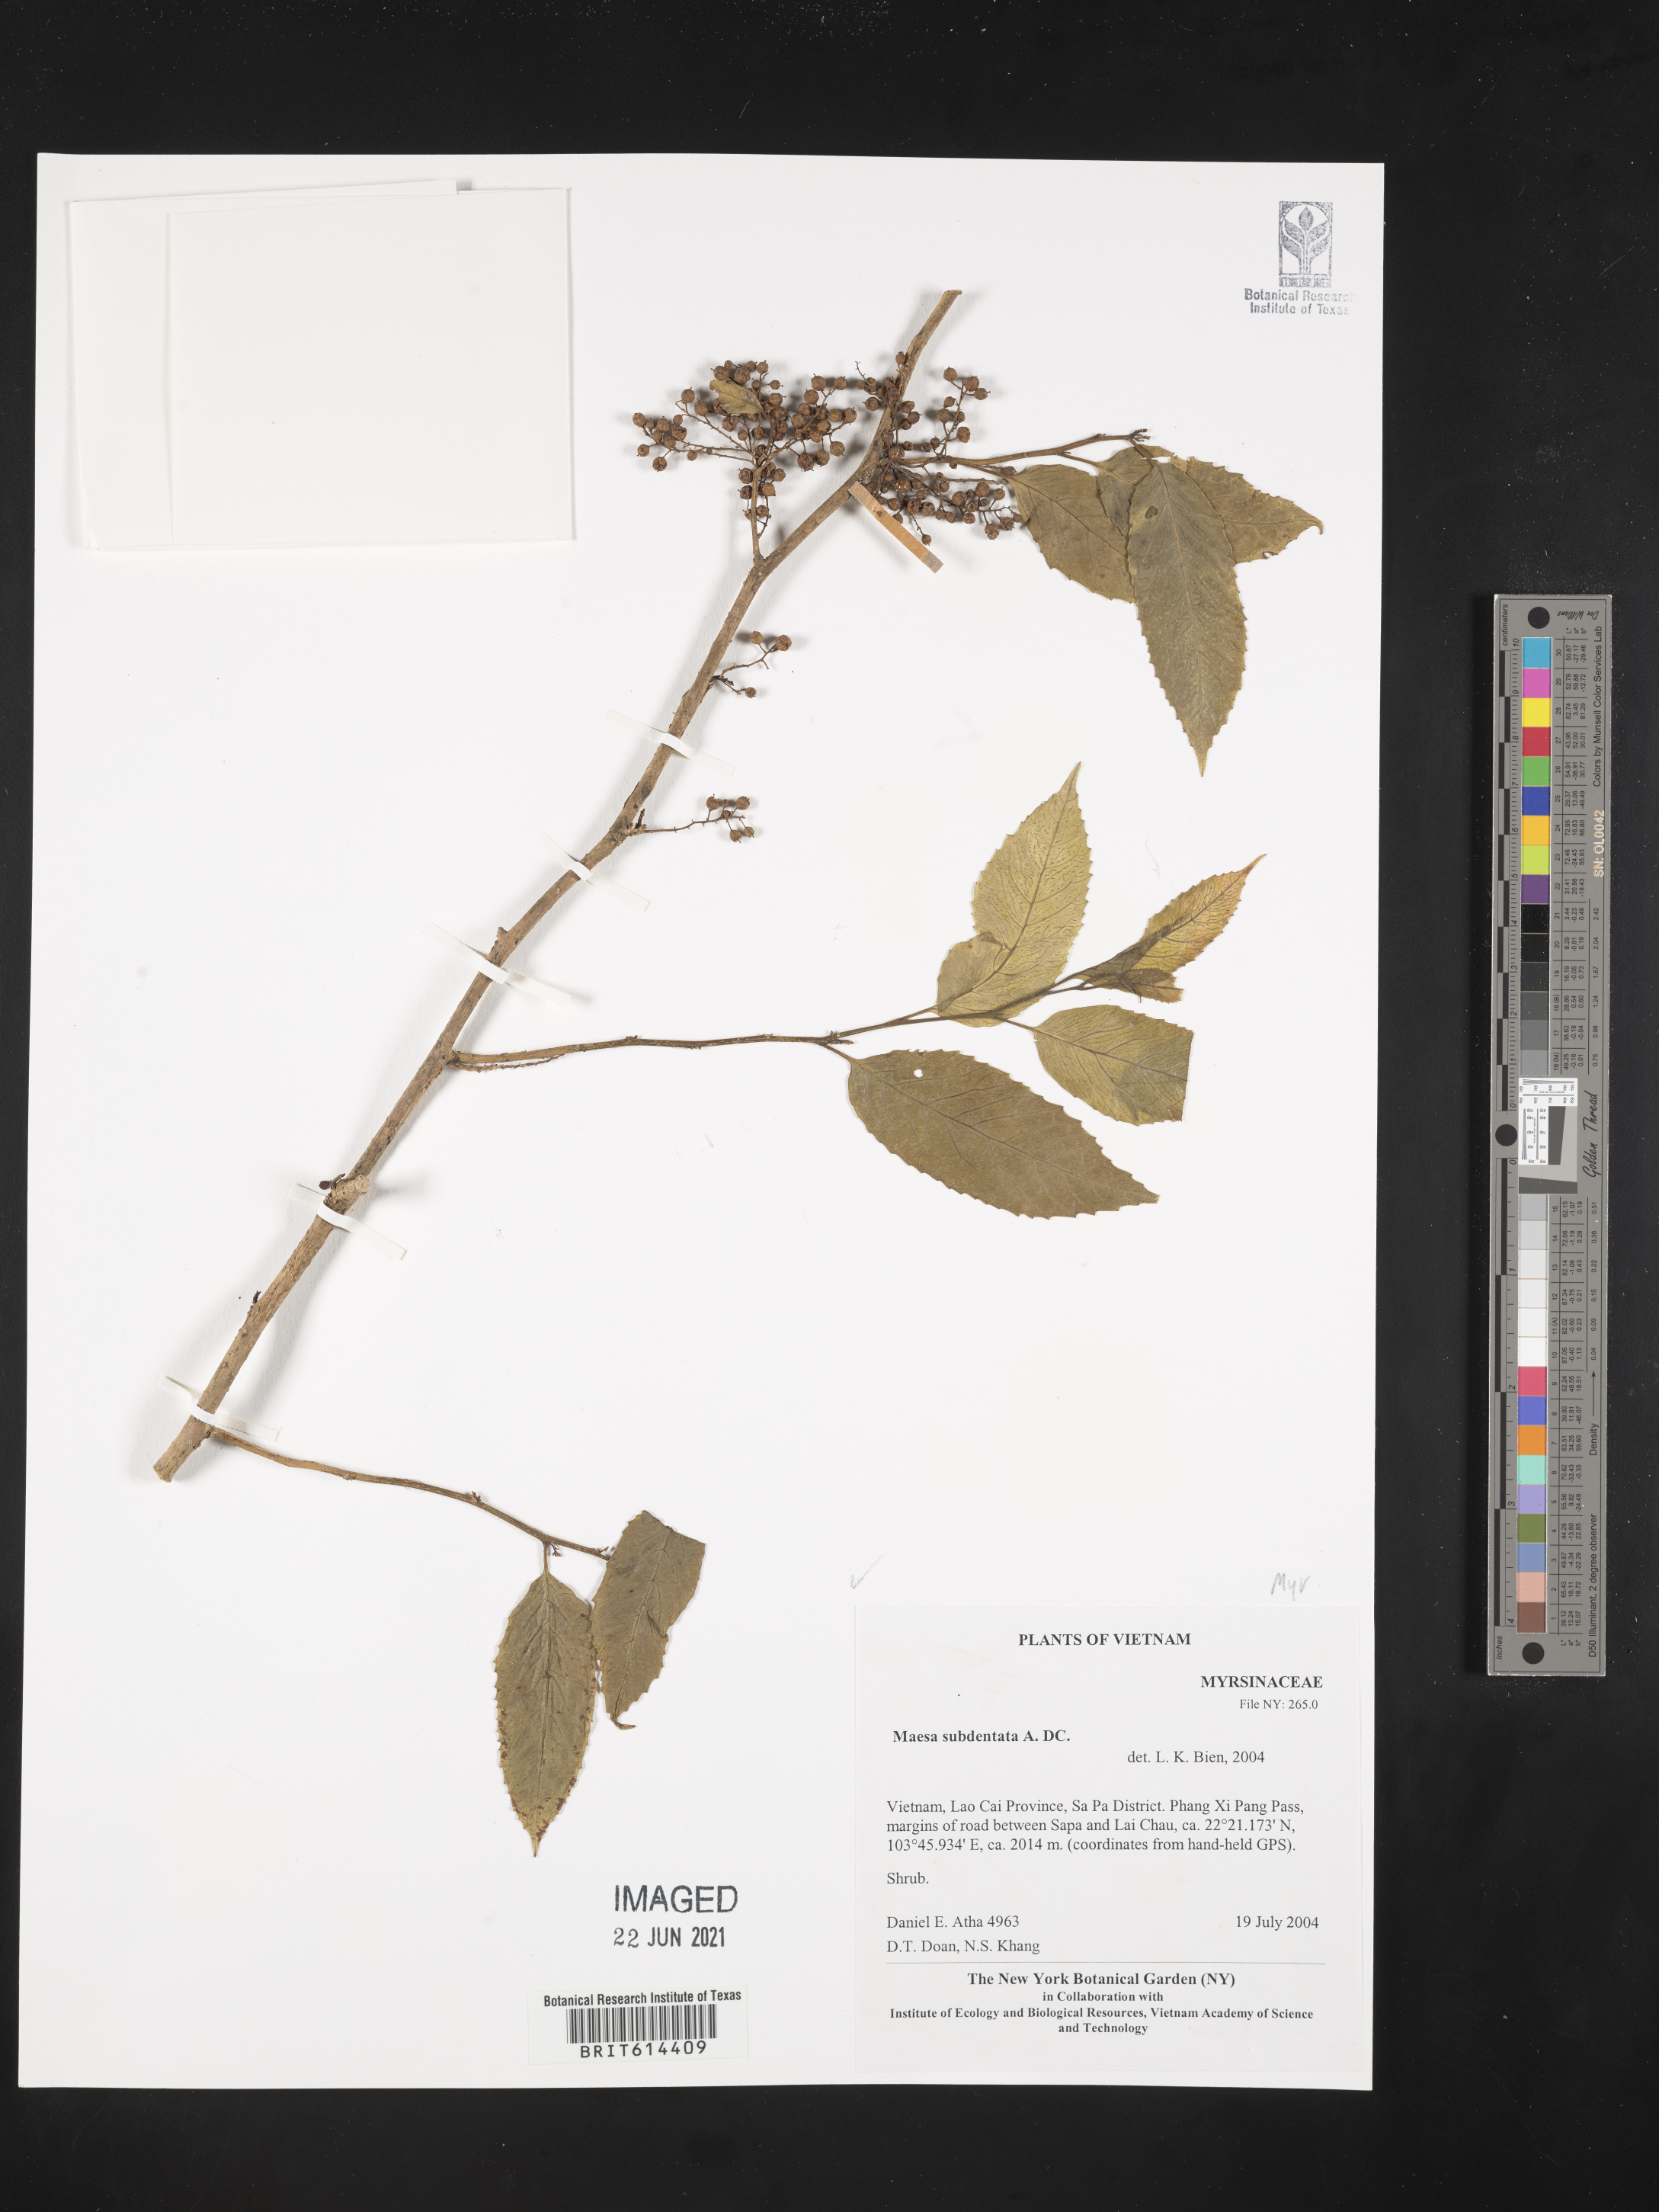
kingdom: Plantae
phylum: Tracheophyta
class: Magnoliopsida
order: Ericales
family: Primulaceae
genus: Maesa
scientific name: Maesa subdentata
